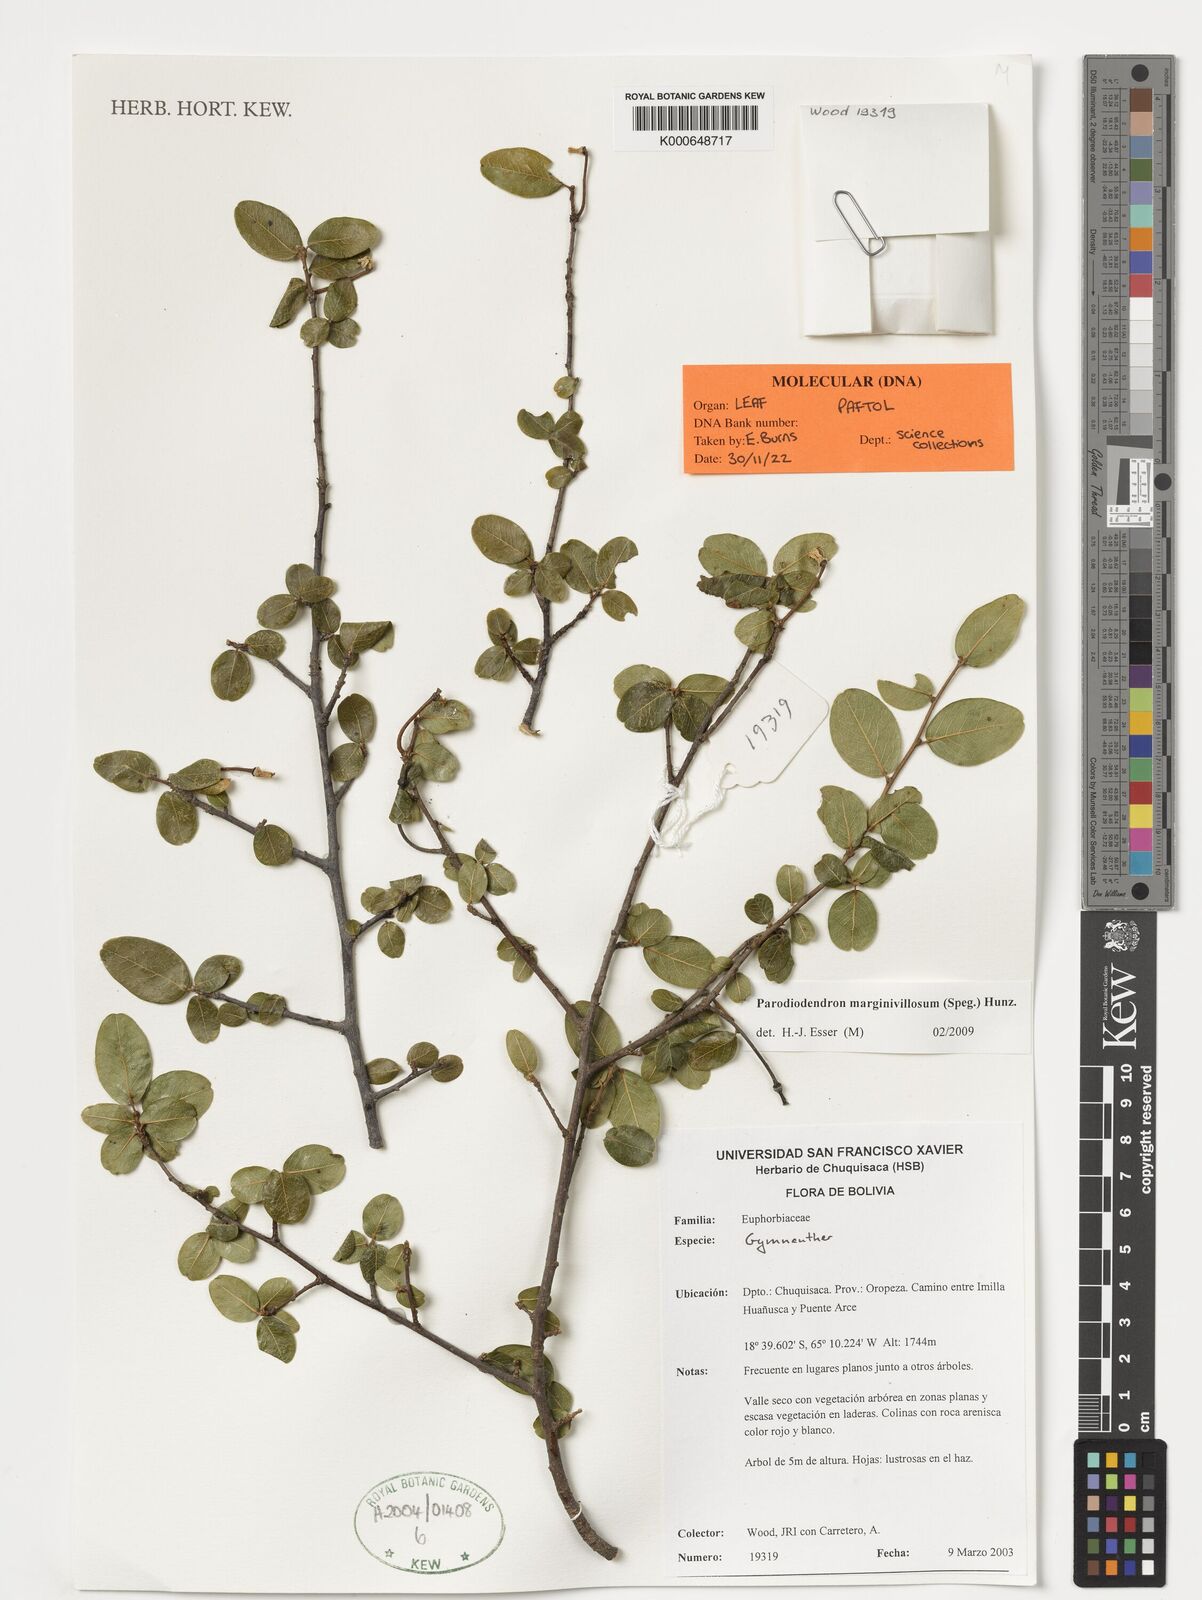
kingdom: Plantae
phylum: Tracheophyta
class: Magnoliopsida
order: Malpighiales
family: Picrodendraceae
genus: Parodiodendron
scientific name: Parodiodendron marginivillosum
